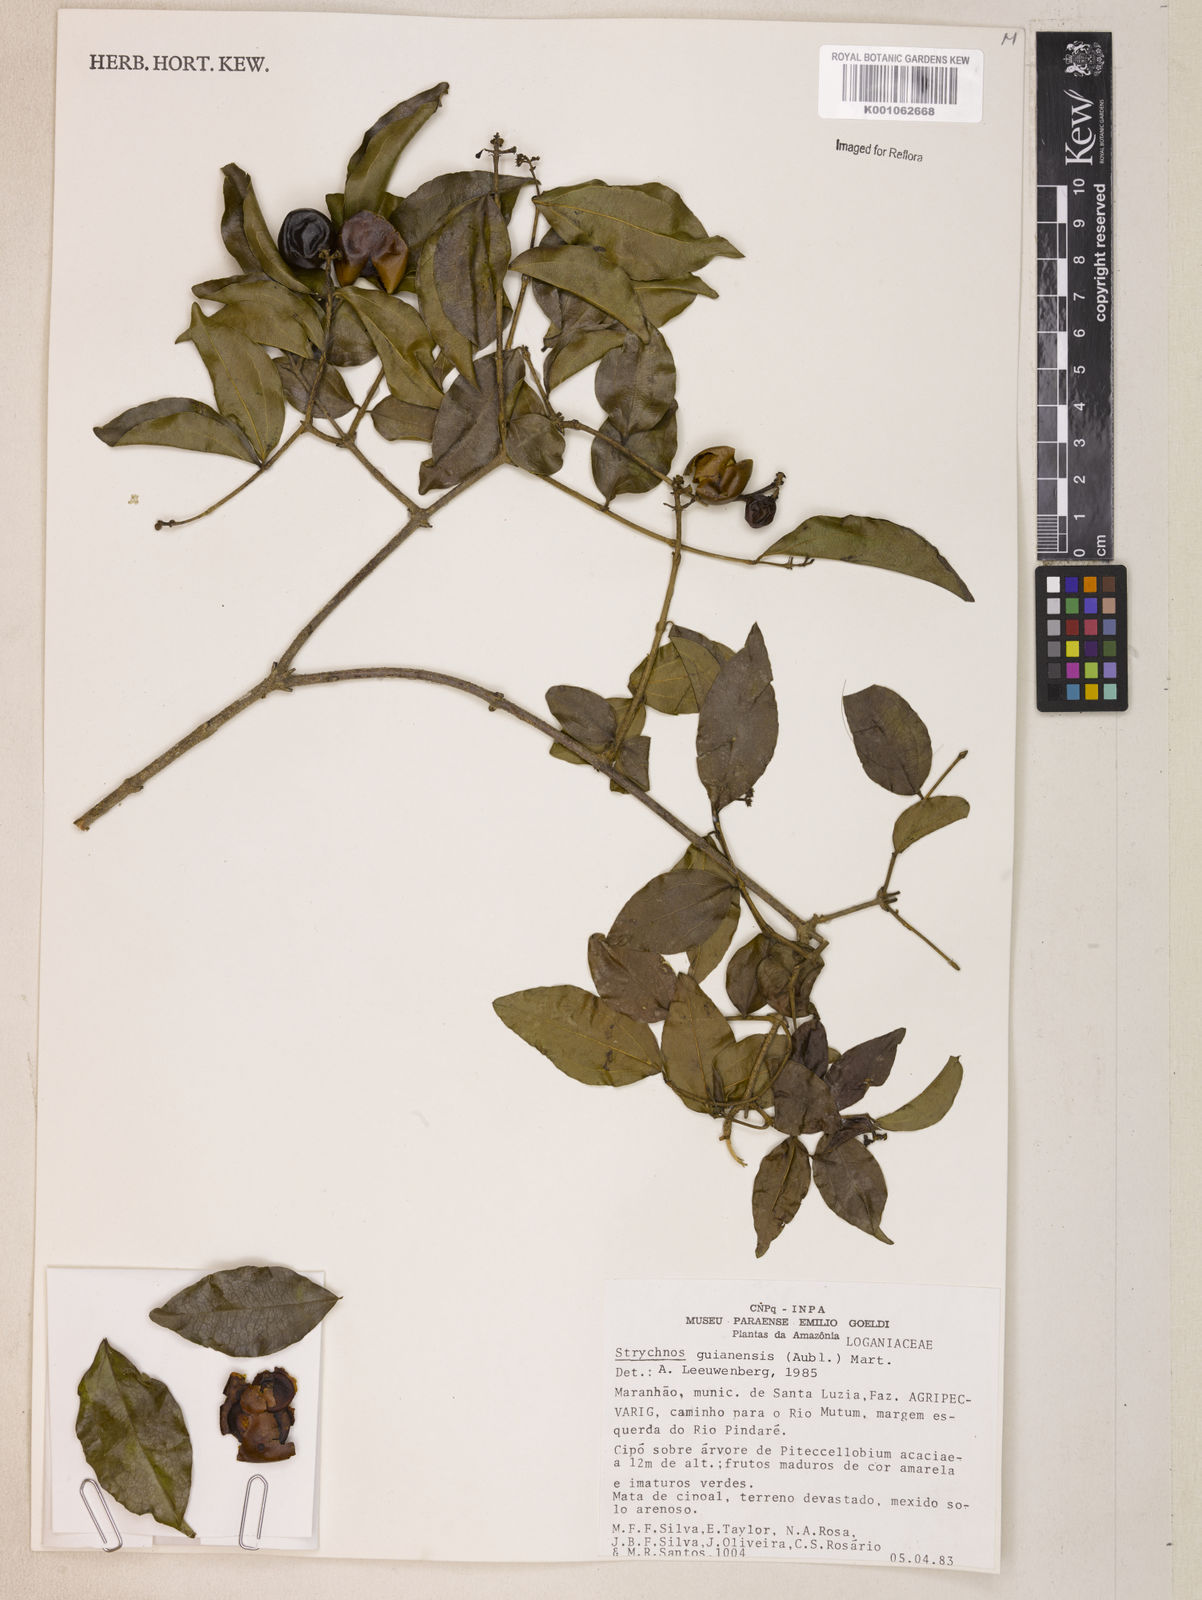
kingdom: Plantae
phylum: Tracheophyta
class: Magnoliopsida
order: Gentianales
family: Loganiaceae
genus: Strychnos
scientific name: Strychnos guianensis
